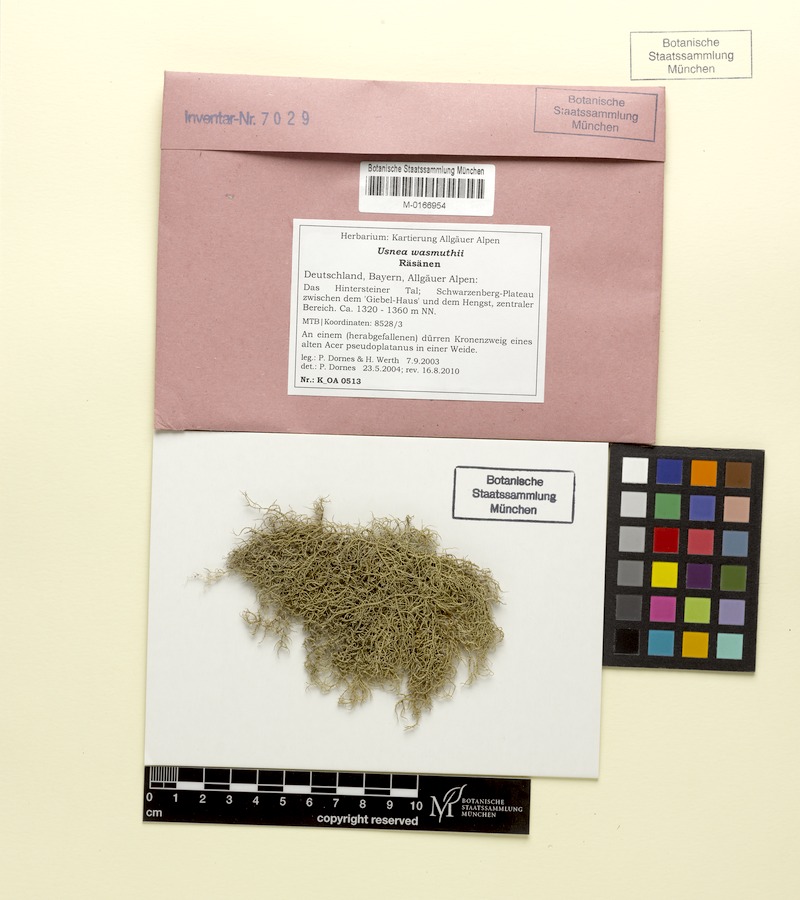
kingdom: Fungi
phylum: Ascomycota
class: Lecanoromycetes
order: Lecanorales
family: Parmeliaceae
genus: Usnea
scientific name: Usnea wasmuthii
